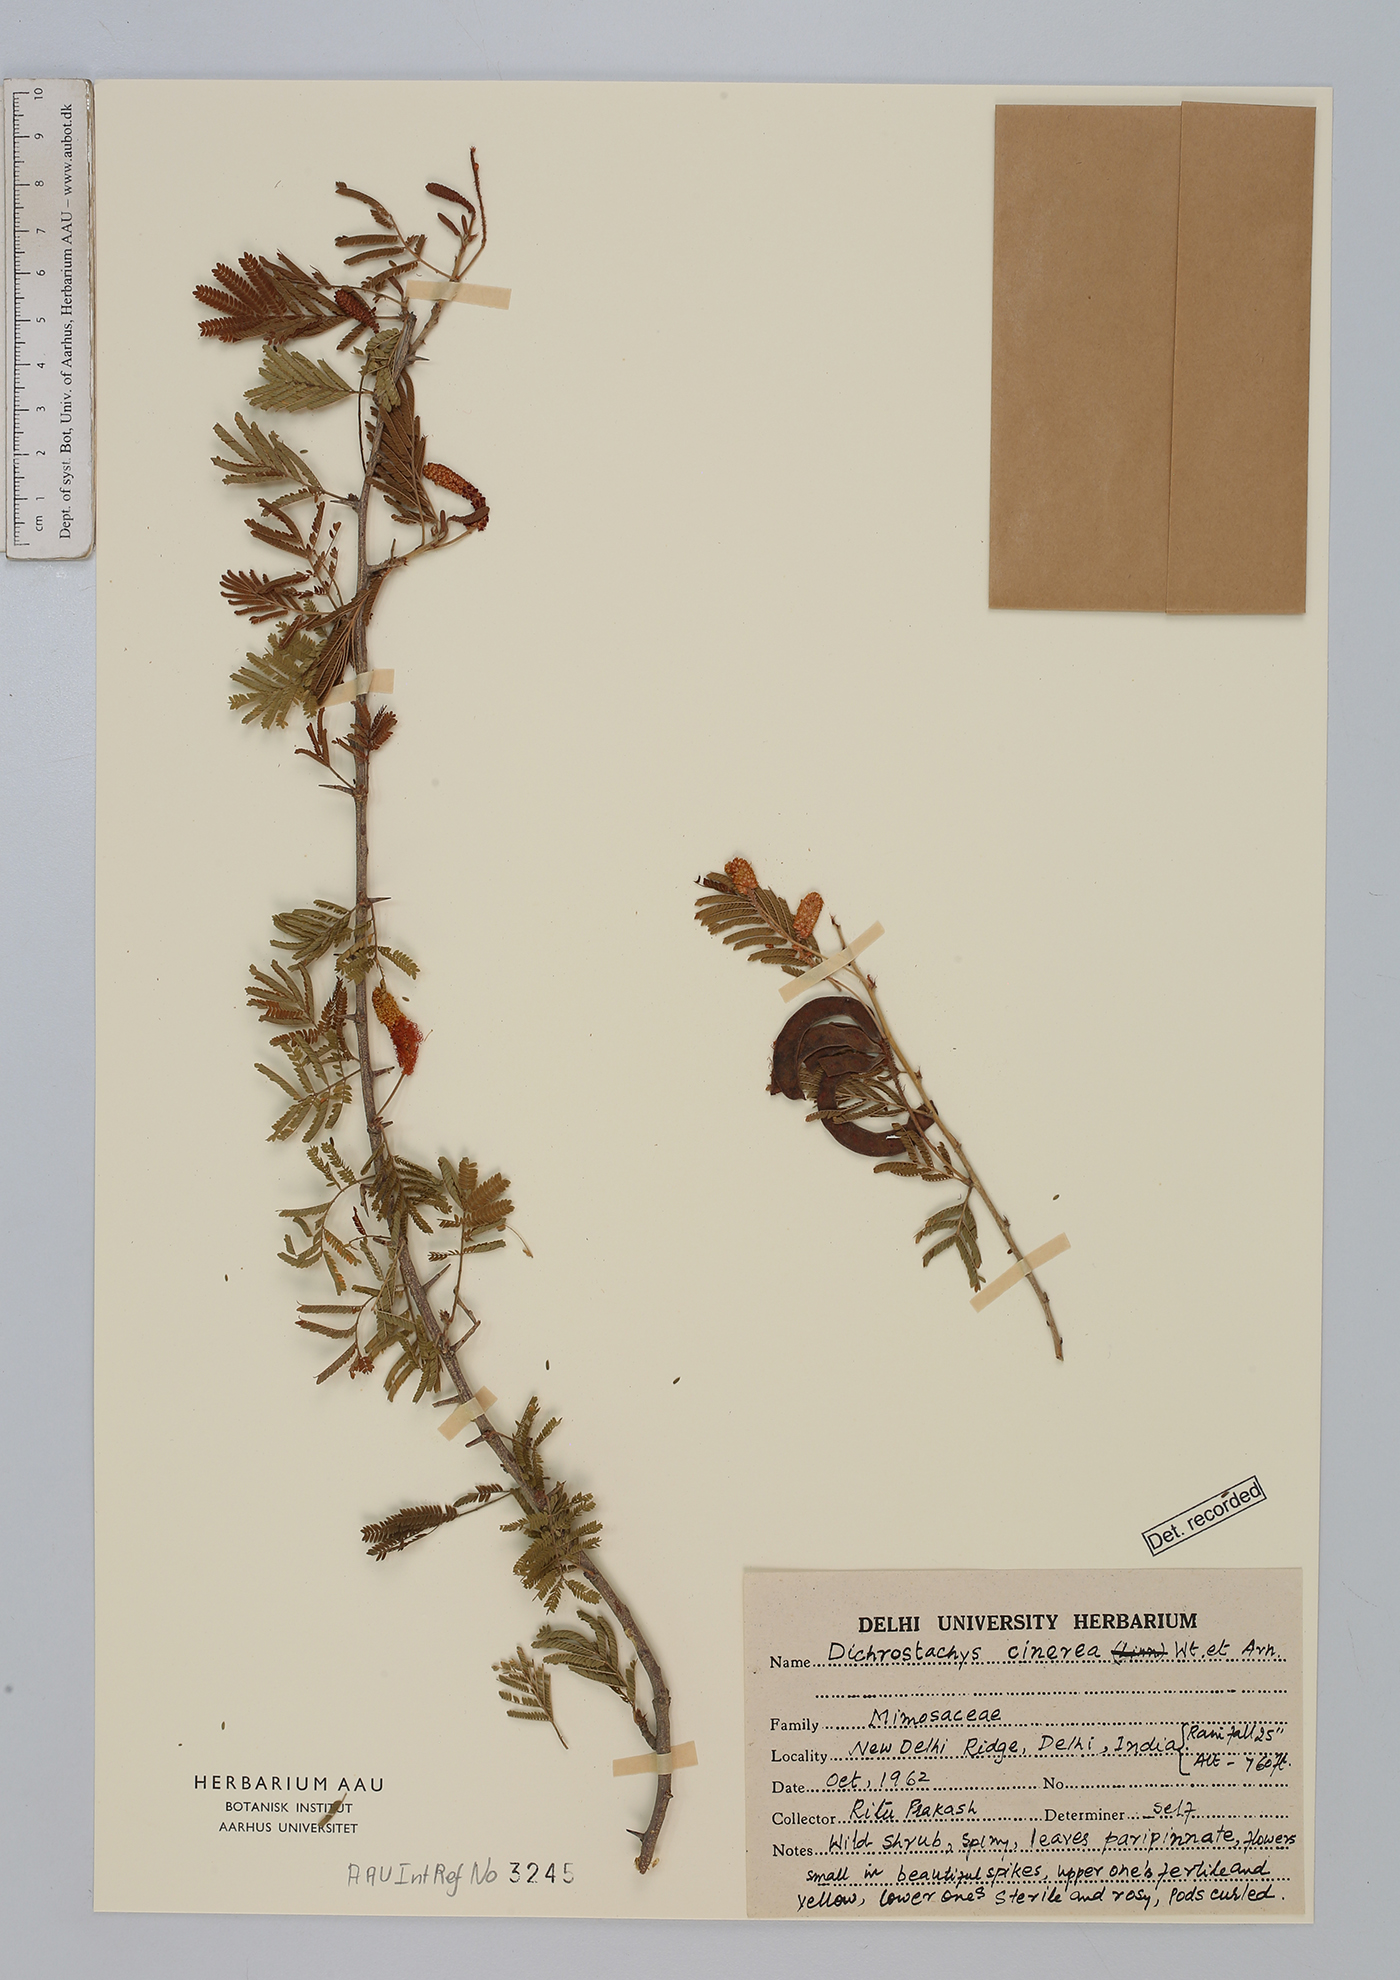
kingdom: Plantae
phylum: Tracheophyta
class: Magnoliopsida
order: Fabales
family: Fabaceae
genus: Dichrostachys
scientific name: Dichrostachys cinerea
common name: Sicklebush
